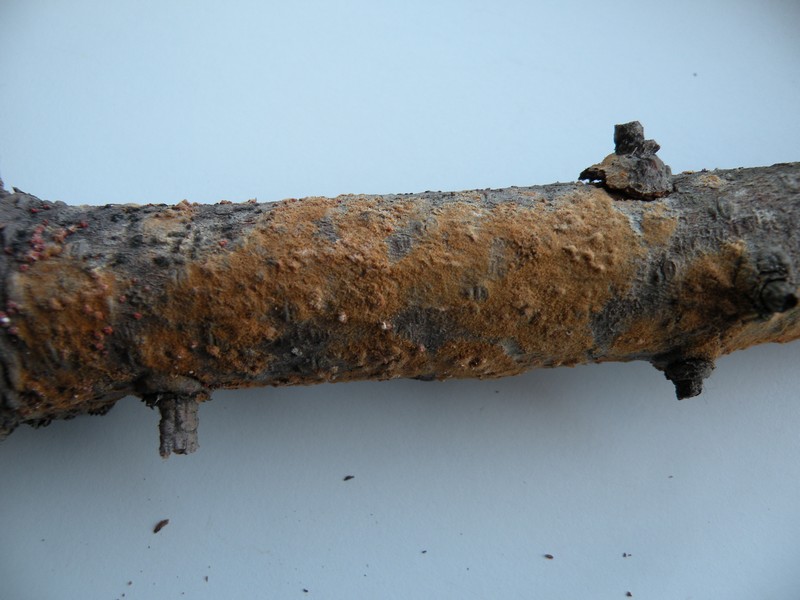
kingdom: Fungi
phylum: Ascomycota
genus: Nematogonum
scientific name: Nematogonum ferrugineum
